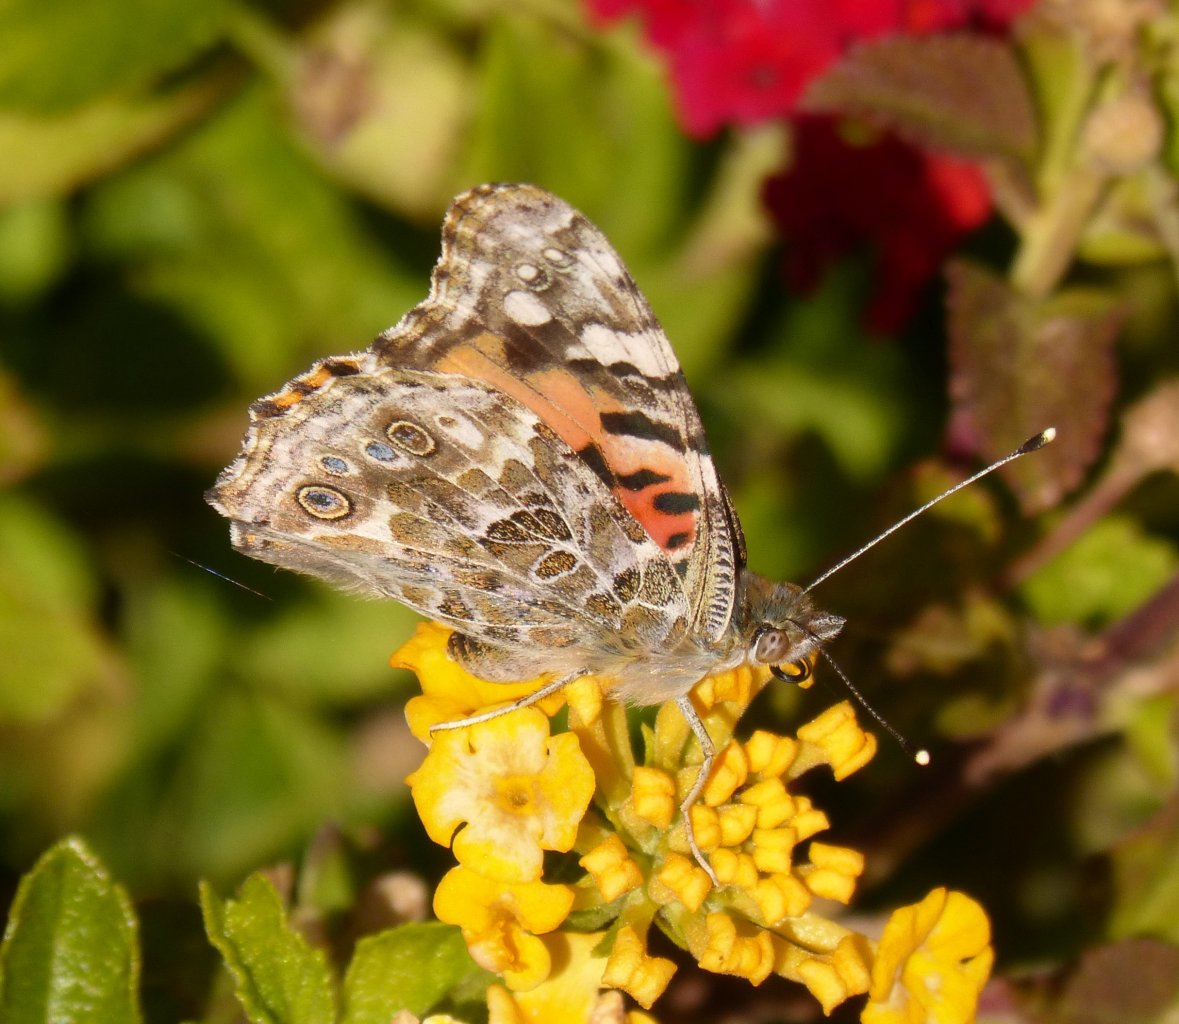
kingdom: Animalia
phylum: Arthropoda
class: Insecta
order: Lepidoptera
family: Nymphalidae
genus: Vanessa
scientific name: Vanessa cardui
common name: Painted Lady
